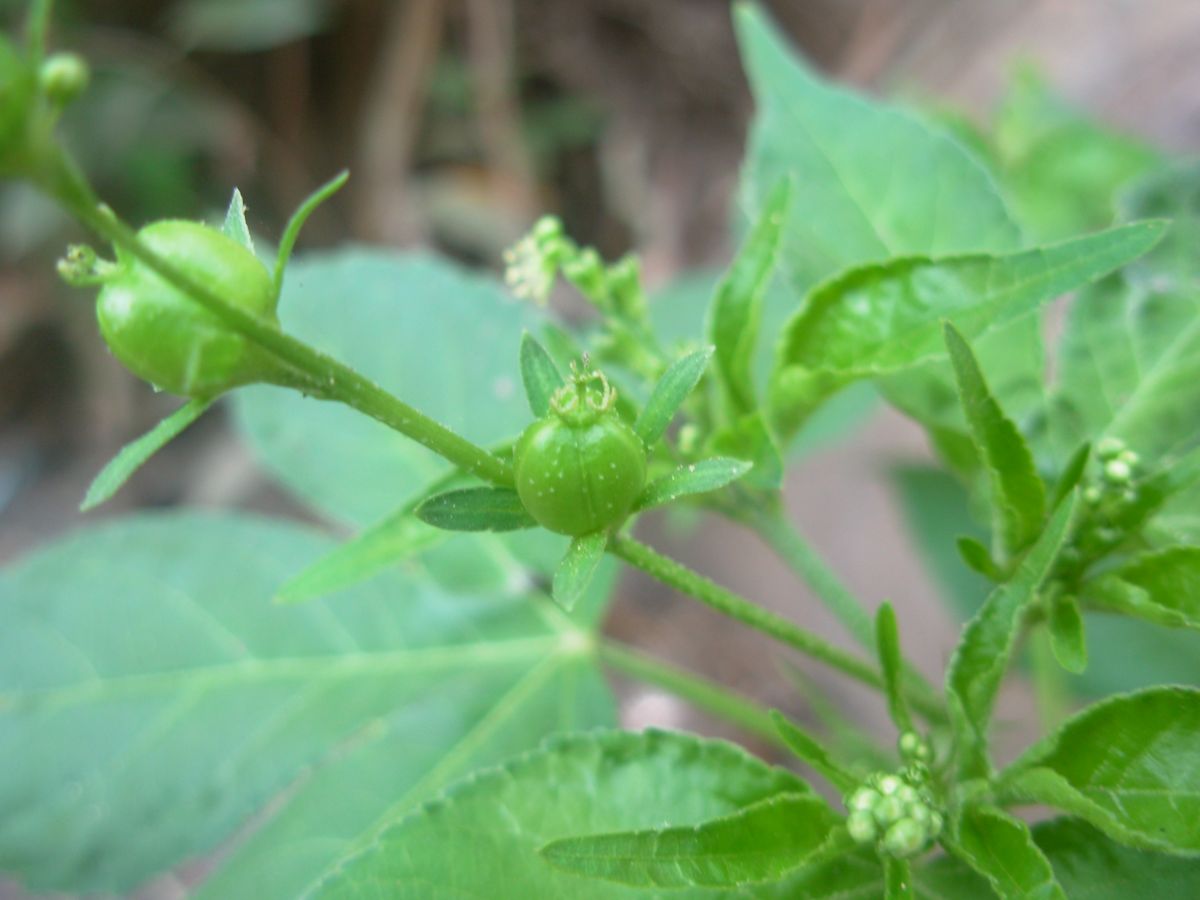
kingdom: Plantae
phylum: Tracheophyta
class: Magnoliopsida
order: Malpighiales
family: Euphorbiaceae
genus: Astraea
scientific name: Astraea lobata
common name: Lobed croton
